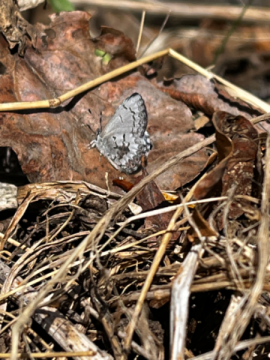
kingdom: Animalia
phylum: Arthropoda
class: Insecta
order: Lepidoptera
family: Lycaenidae
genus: Celastrina
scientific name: Celastrina lucia
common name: Northern Spring Azure
